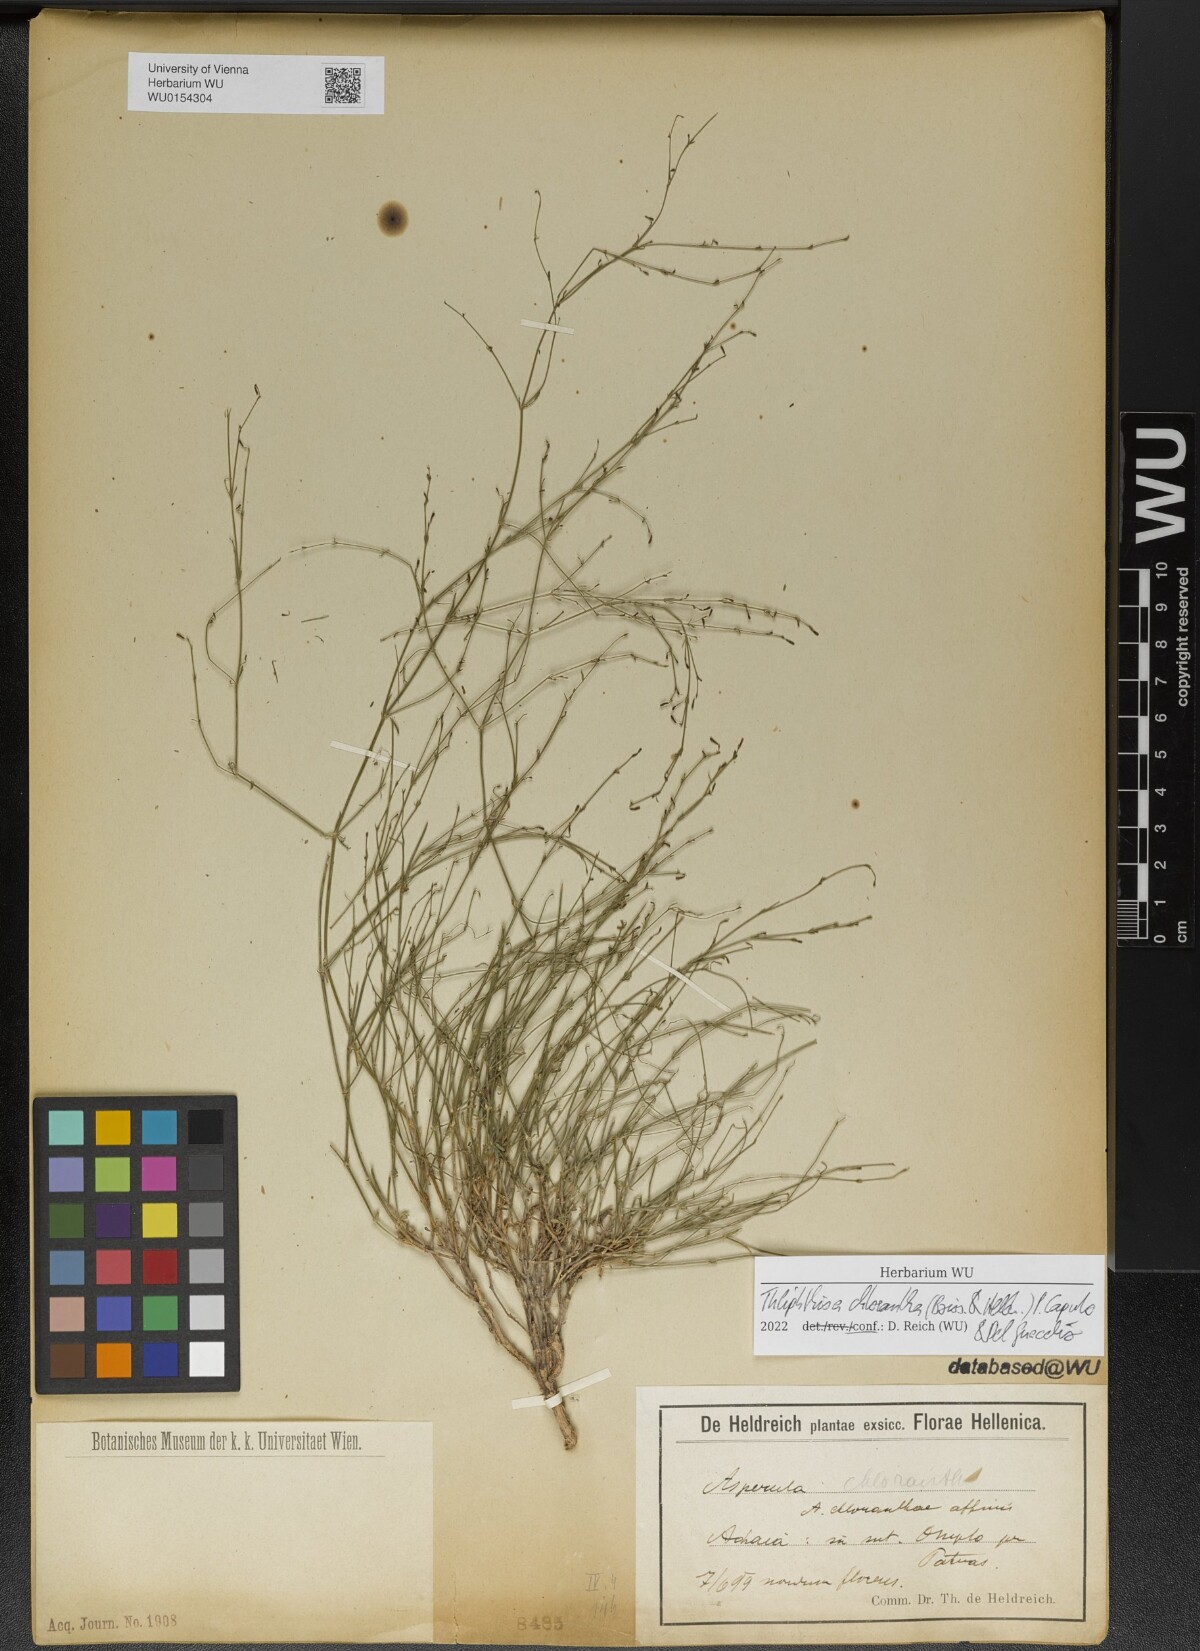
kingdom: Plantae
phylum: Tracheophyta
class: Magnoliopsida
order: Gentianales
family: Rubiaceae
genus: Thliphthisa
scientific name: Thliphthisa chlorantha
